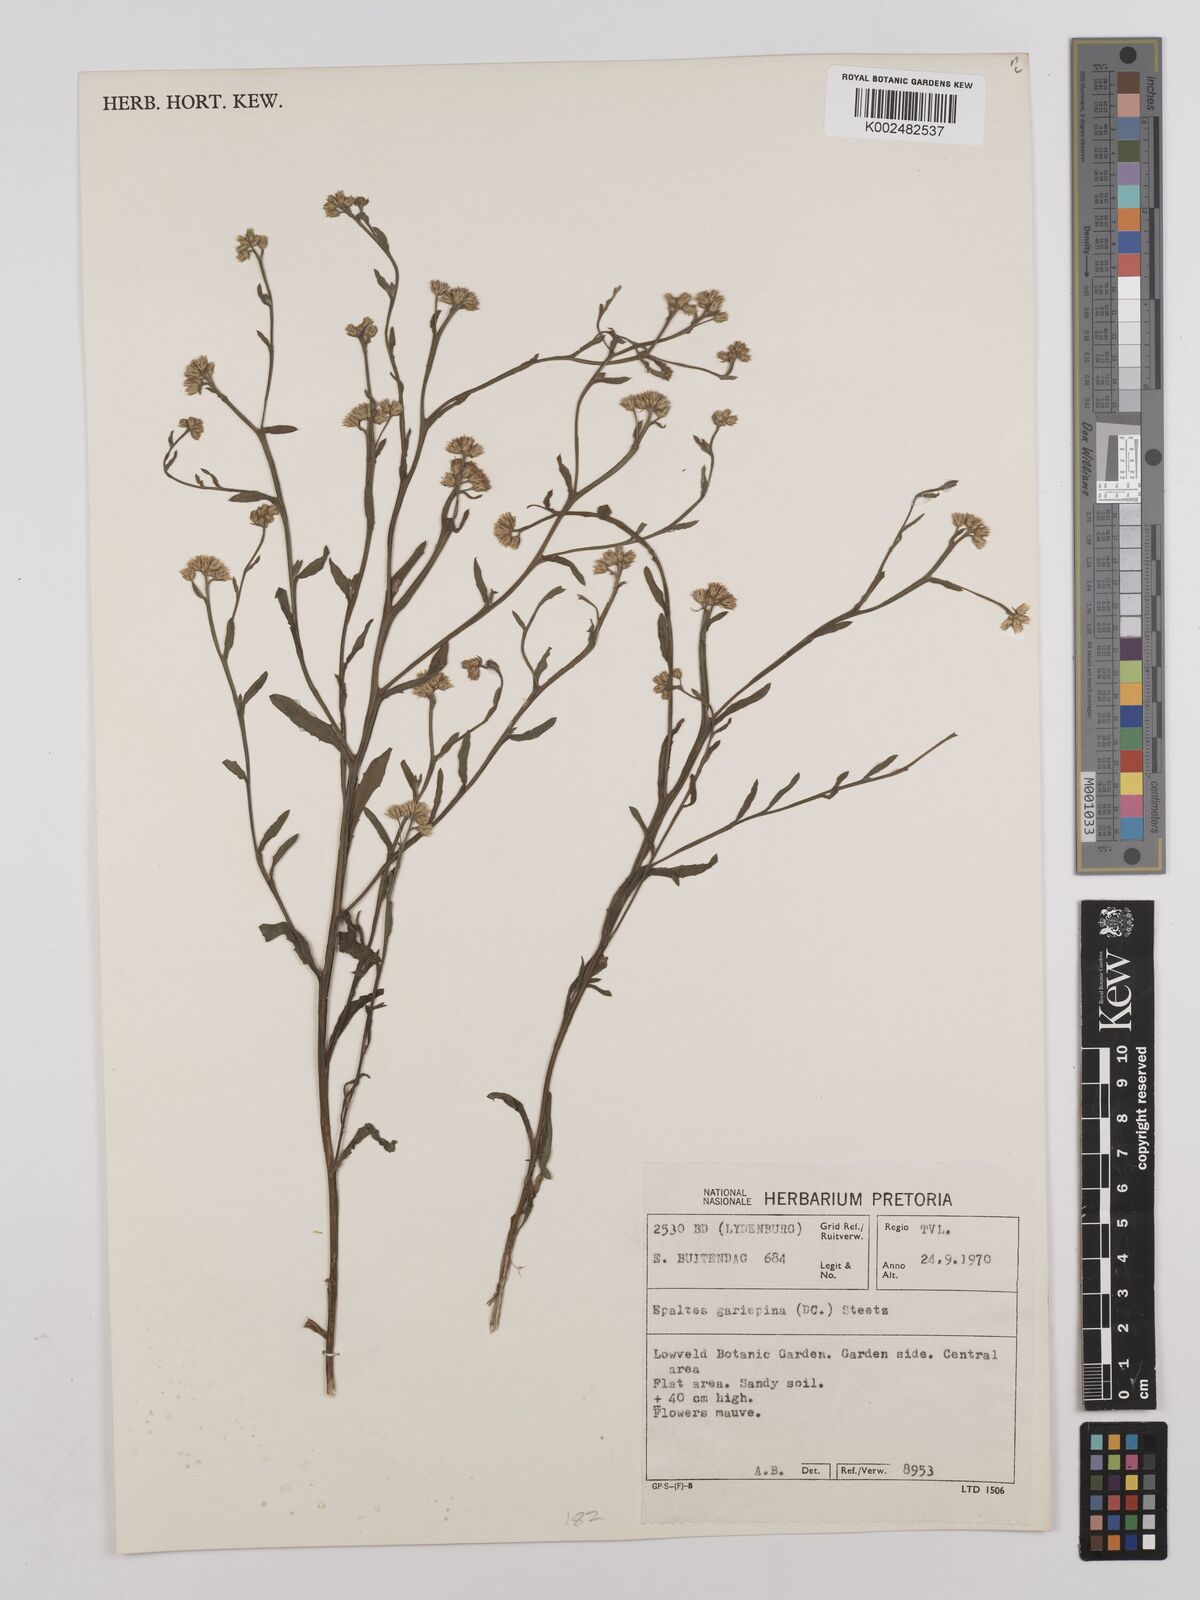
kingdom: Plantae
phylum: Tracheophyta
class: Magnoliopsida
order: Asterales
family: Asteraceae
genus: Litogyne
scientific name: Litogyne gariepina
